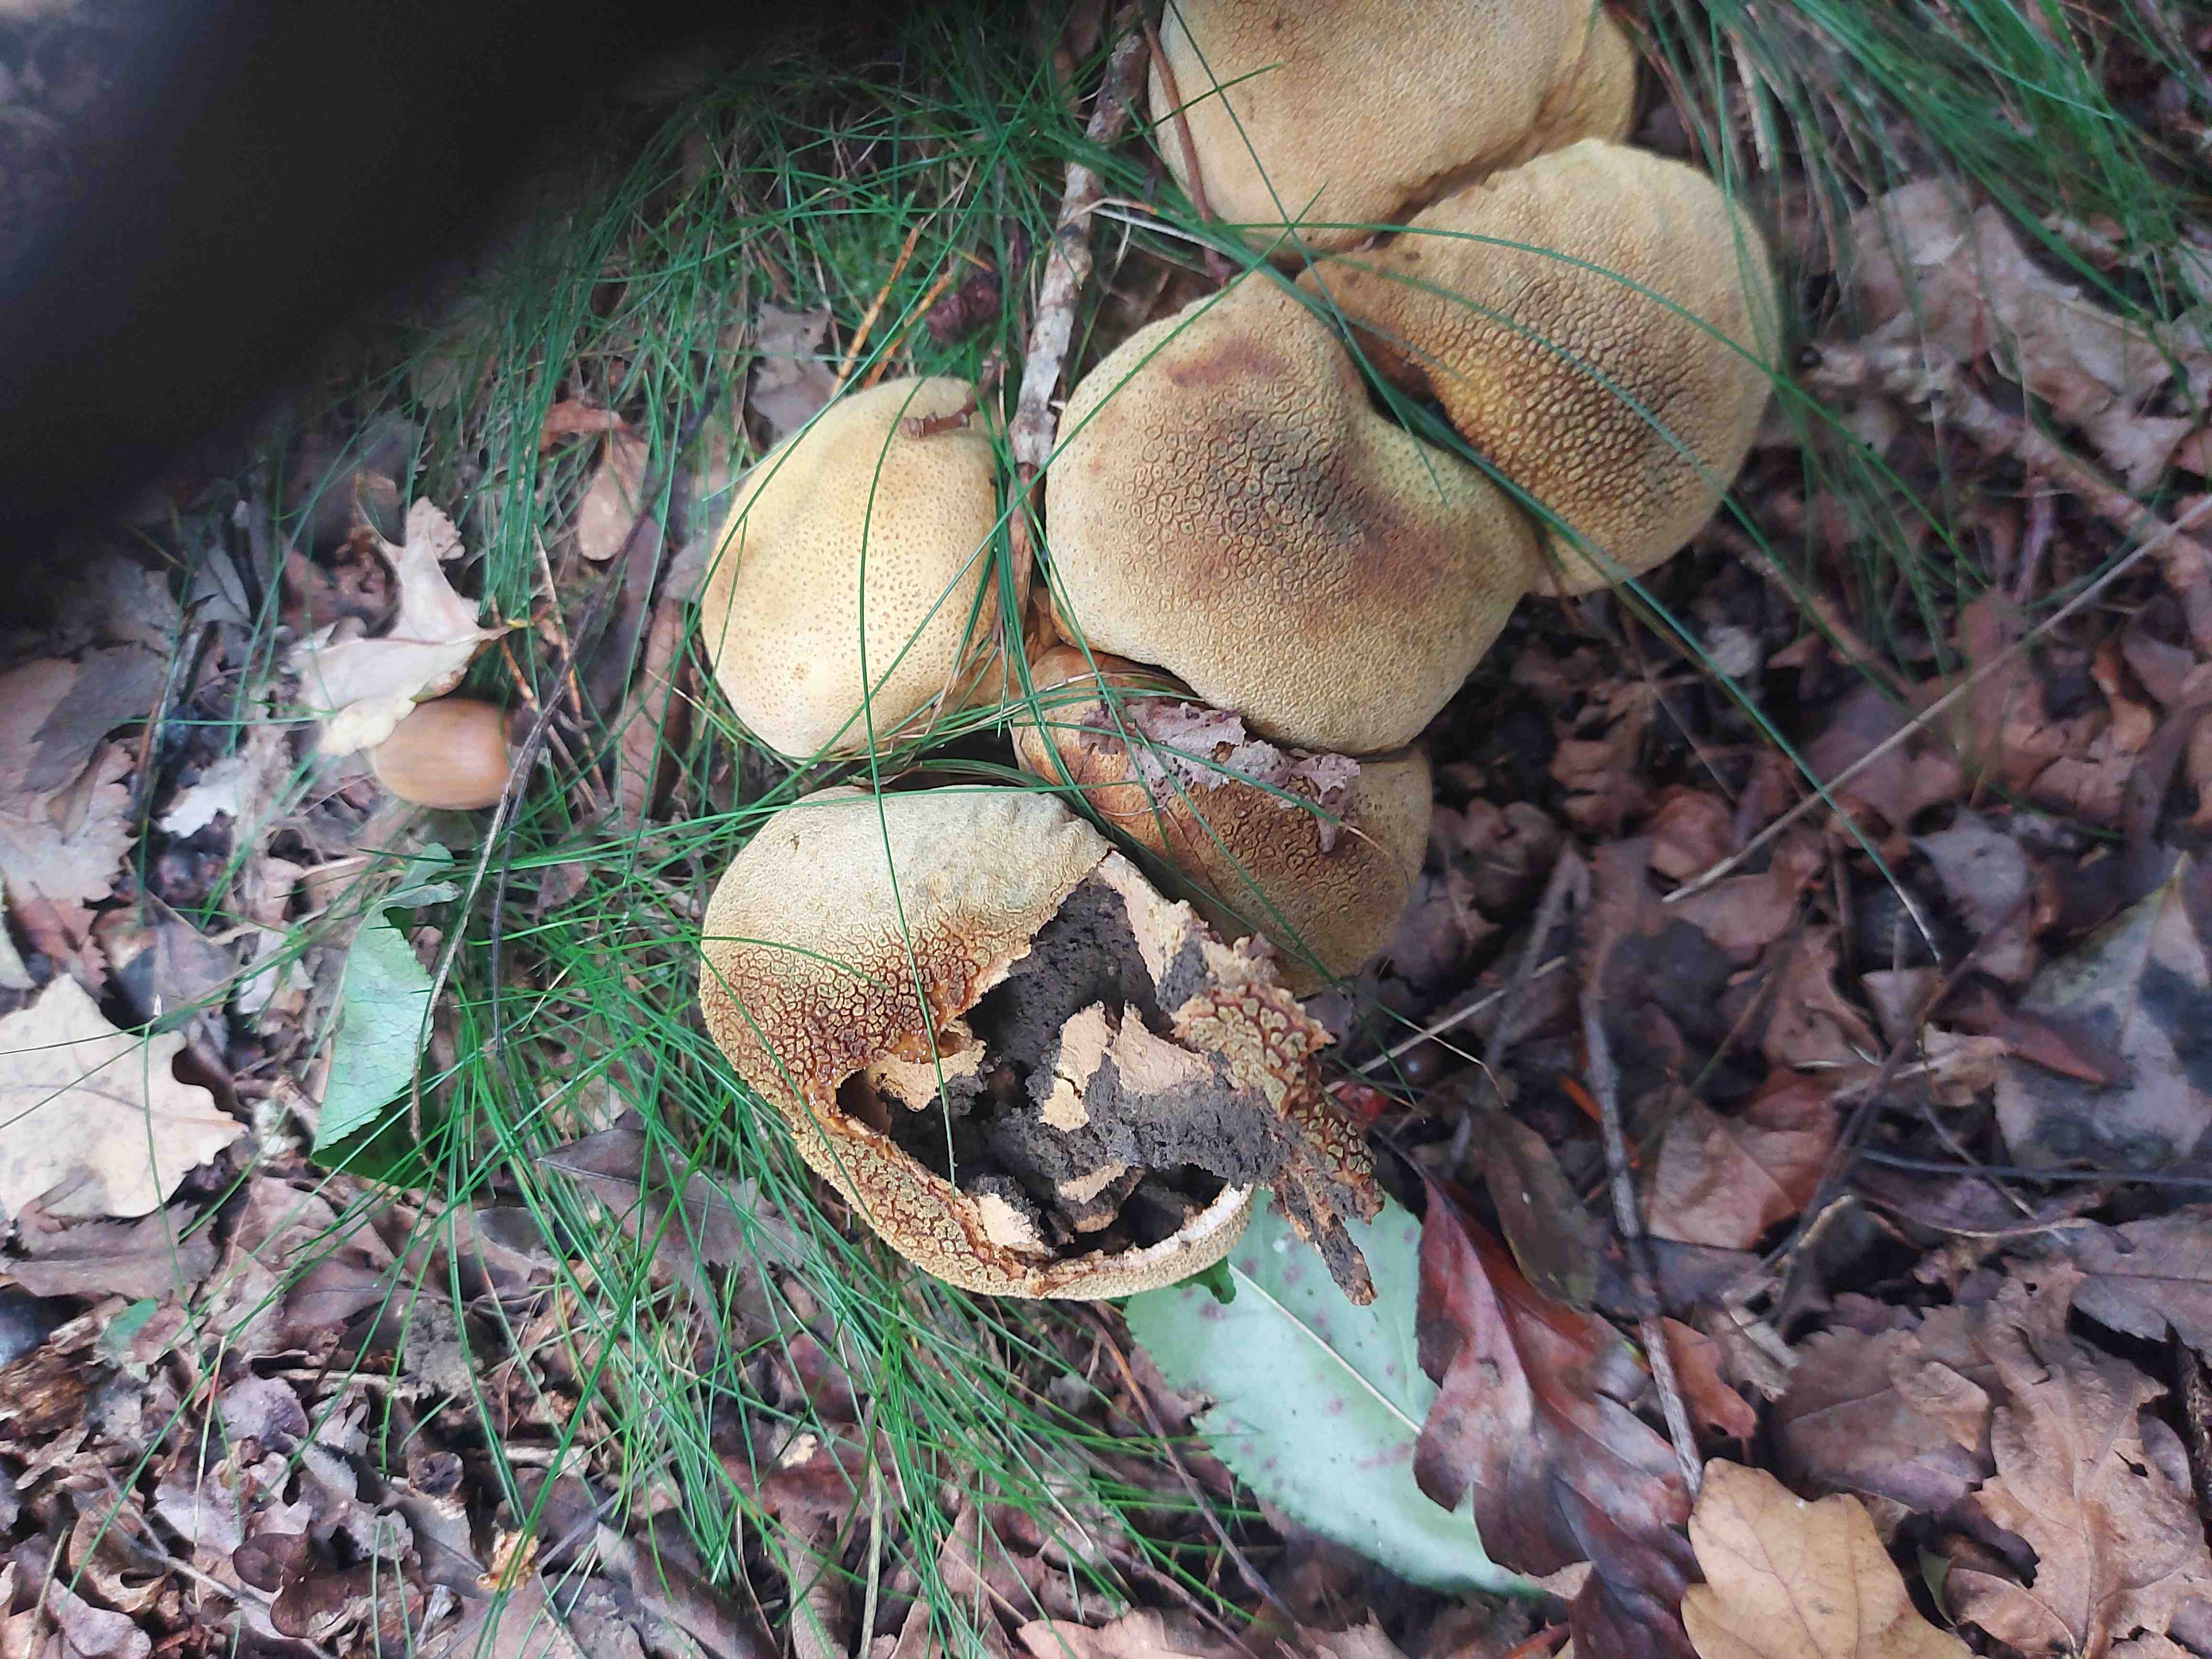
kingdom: Fungi
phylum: Basidiomycota
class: Agaricomycetes
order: Boletales
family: Sclerodermataceae
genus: Scleroderma
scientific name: Scleroderma citrinum
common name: almindelig bruskbold
